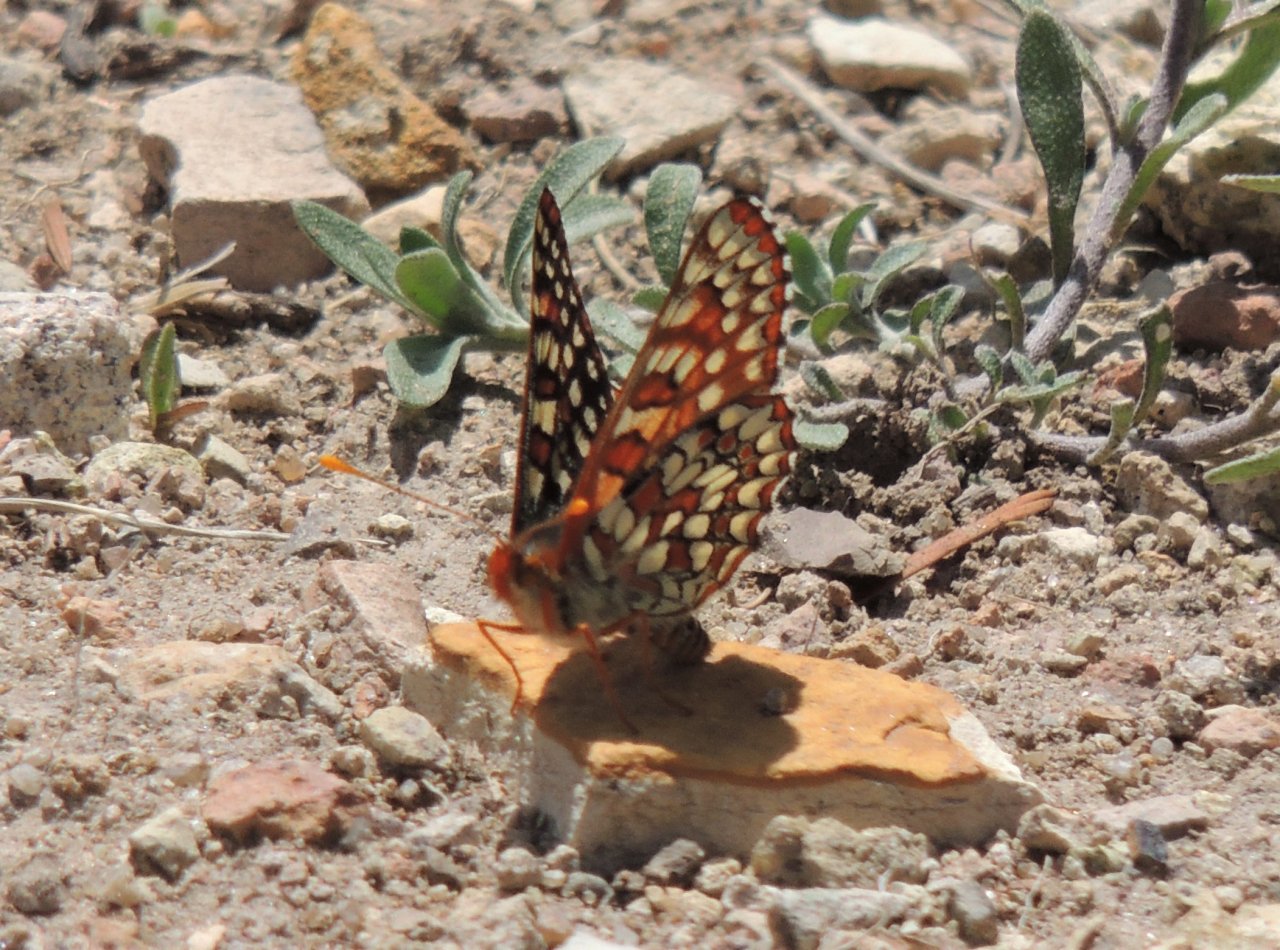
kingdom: Animalia
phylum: Arthropoda
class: Insecta
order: Lepidoptera
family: Nymphalidae
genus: Occidryas
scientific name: Occidryas anicia
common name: Anicia Checkerspot
